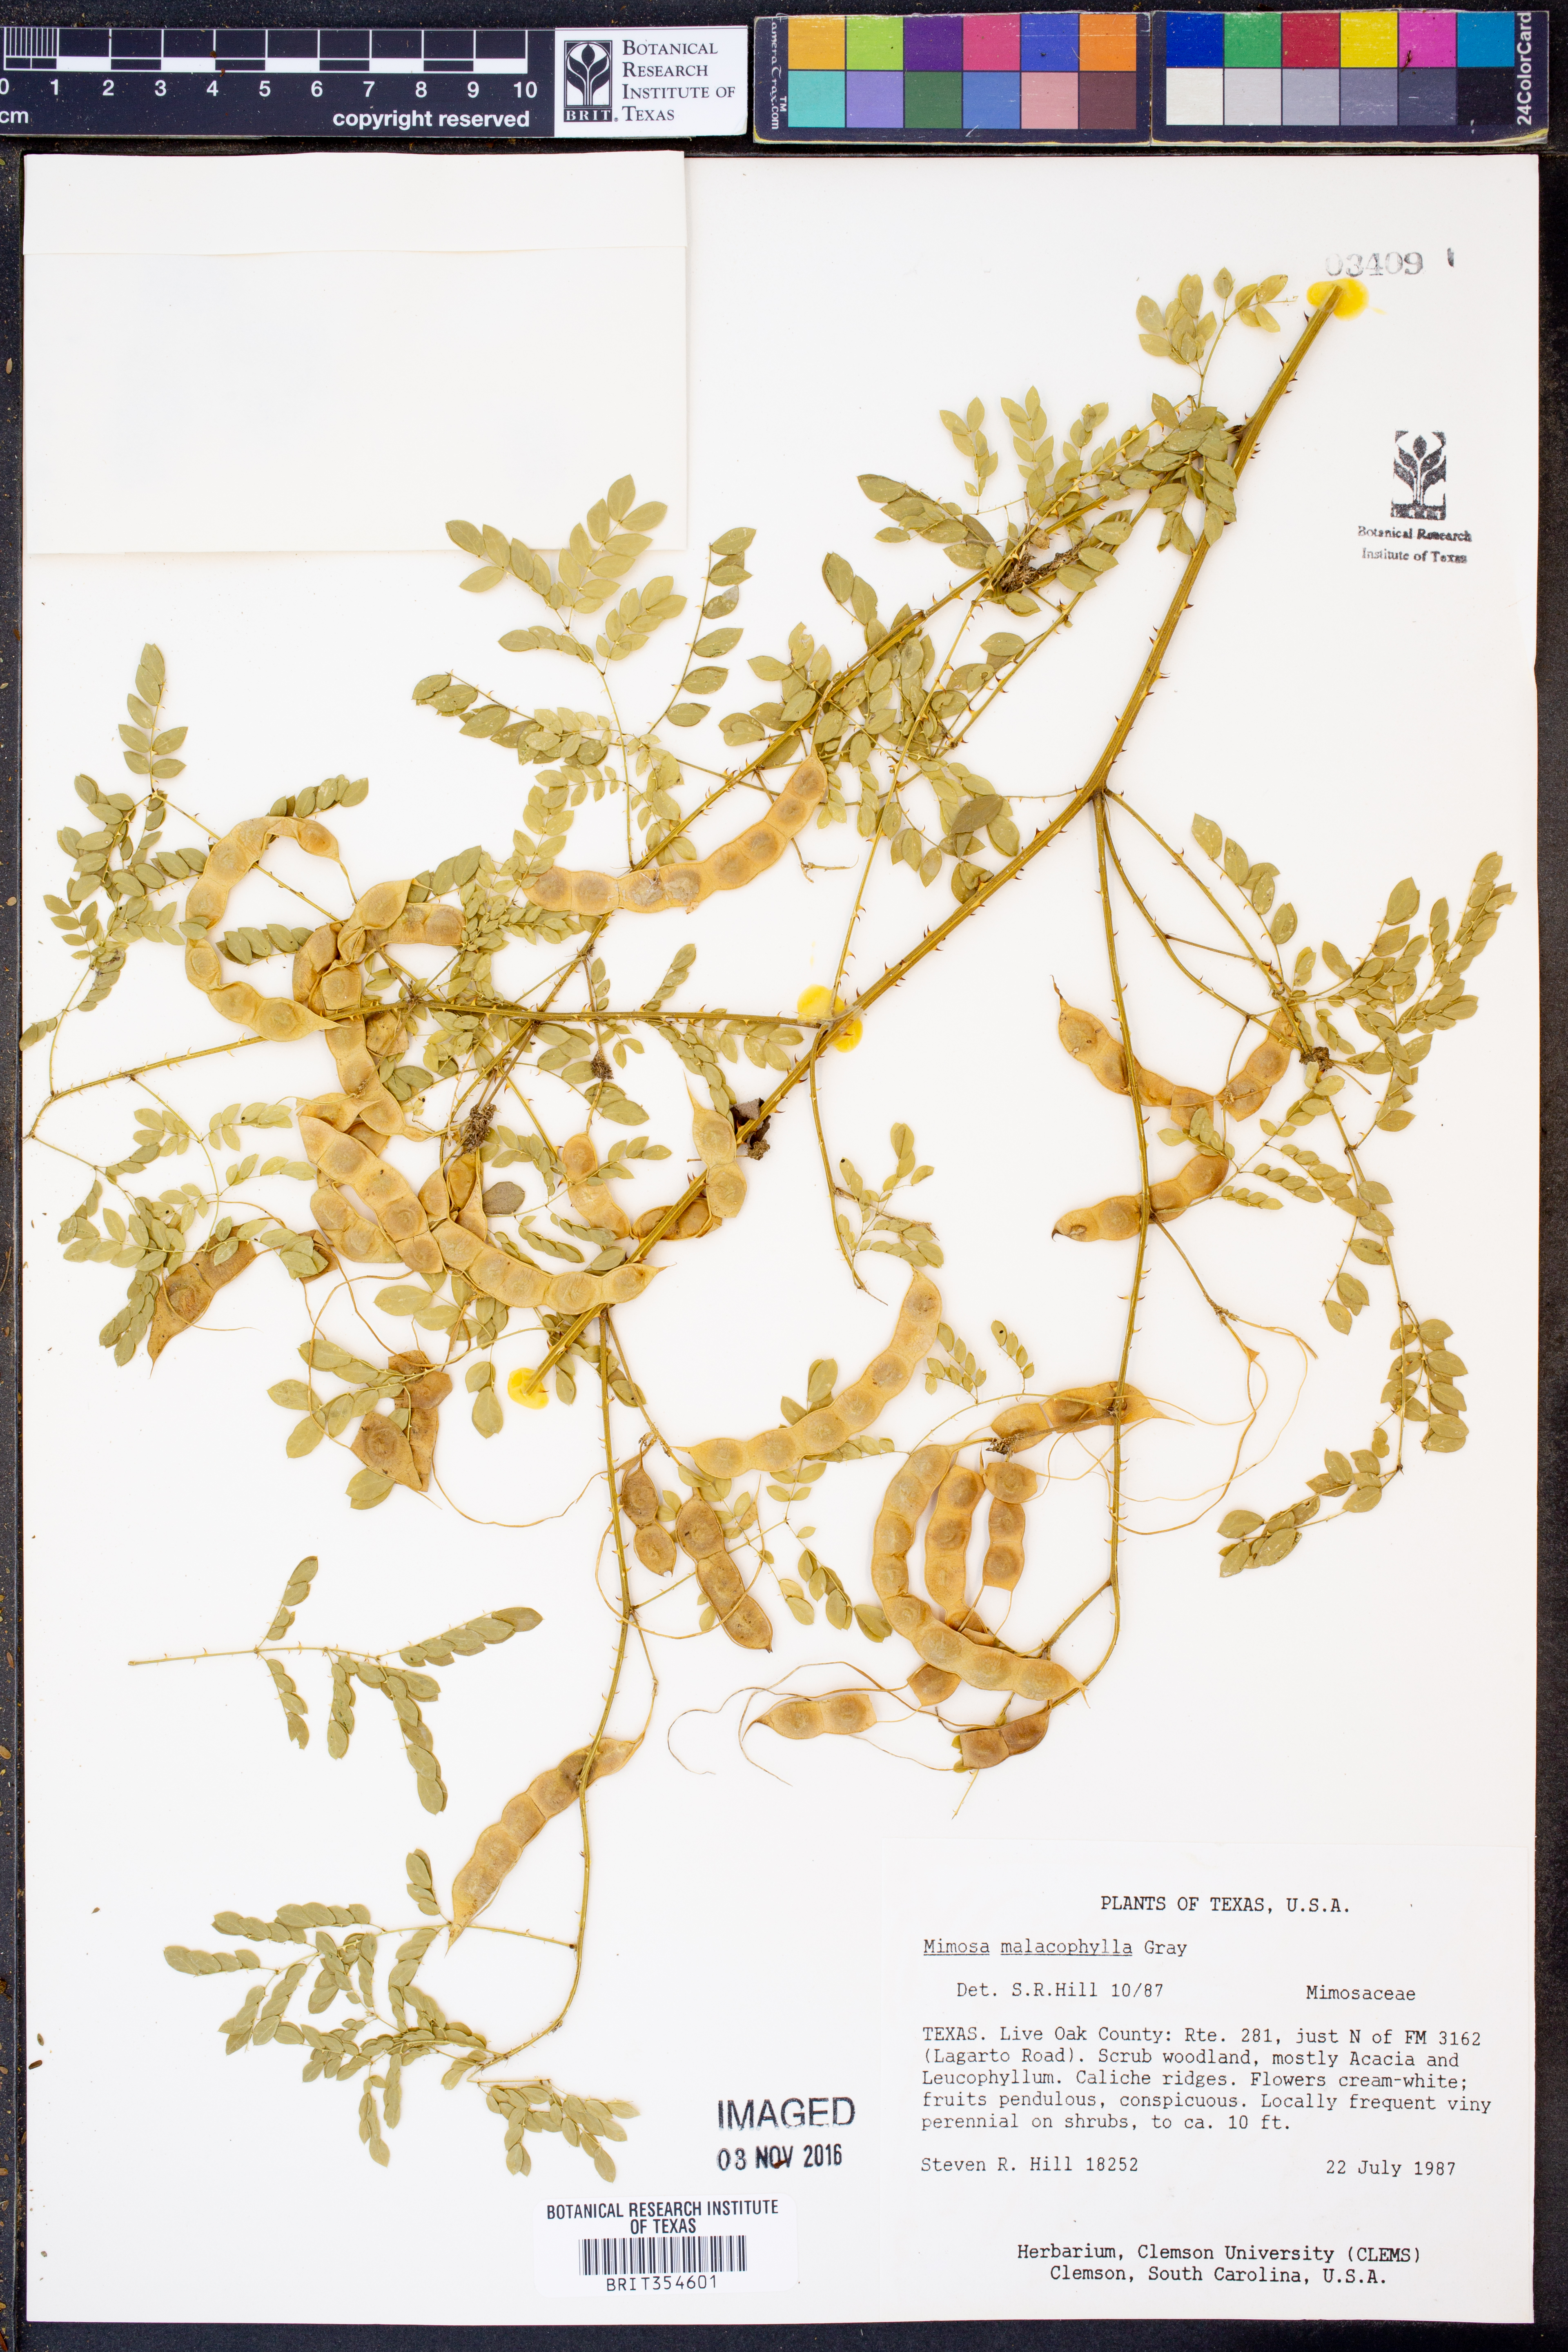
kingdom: Plantae
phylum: Tracheophyta
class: Magnoliopsida
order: Fabales
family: Fabaceae
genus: Mimosa
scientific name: Mimosa malacophylla
